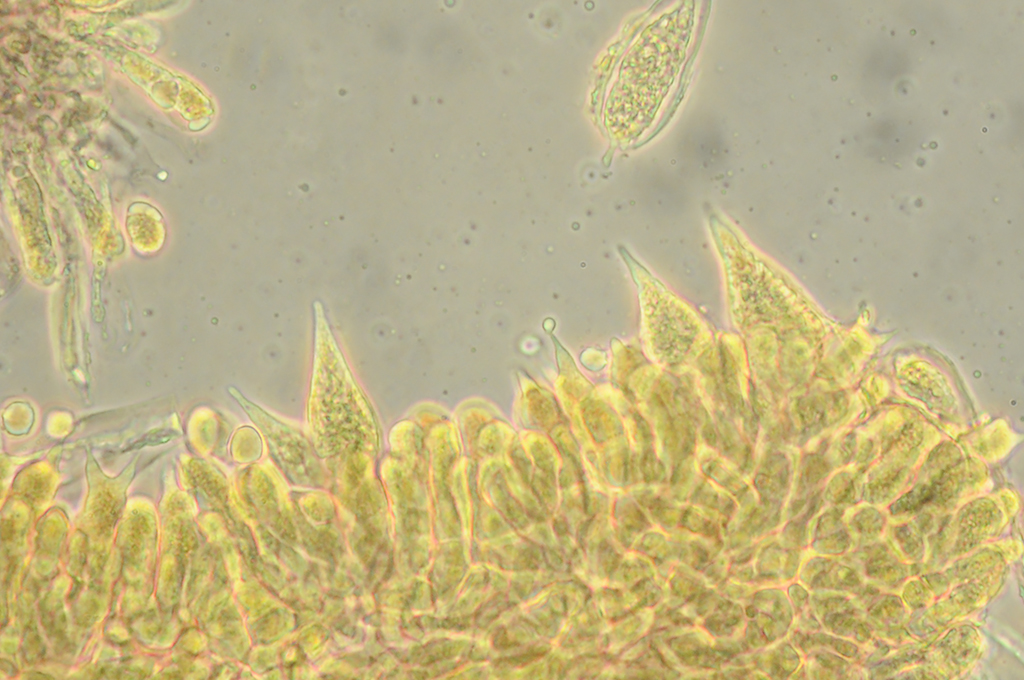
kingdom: Fungi
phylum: Basidiomycota
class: Agaricomycetes
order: Agaricales
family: Mycenaceae
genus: Mycena
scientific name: Mycena erubescens
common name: galde-huesvamp
